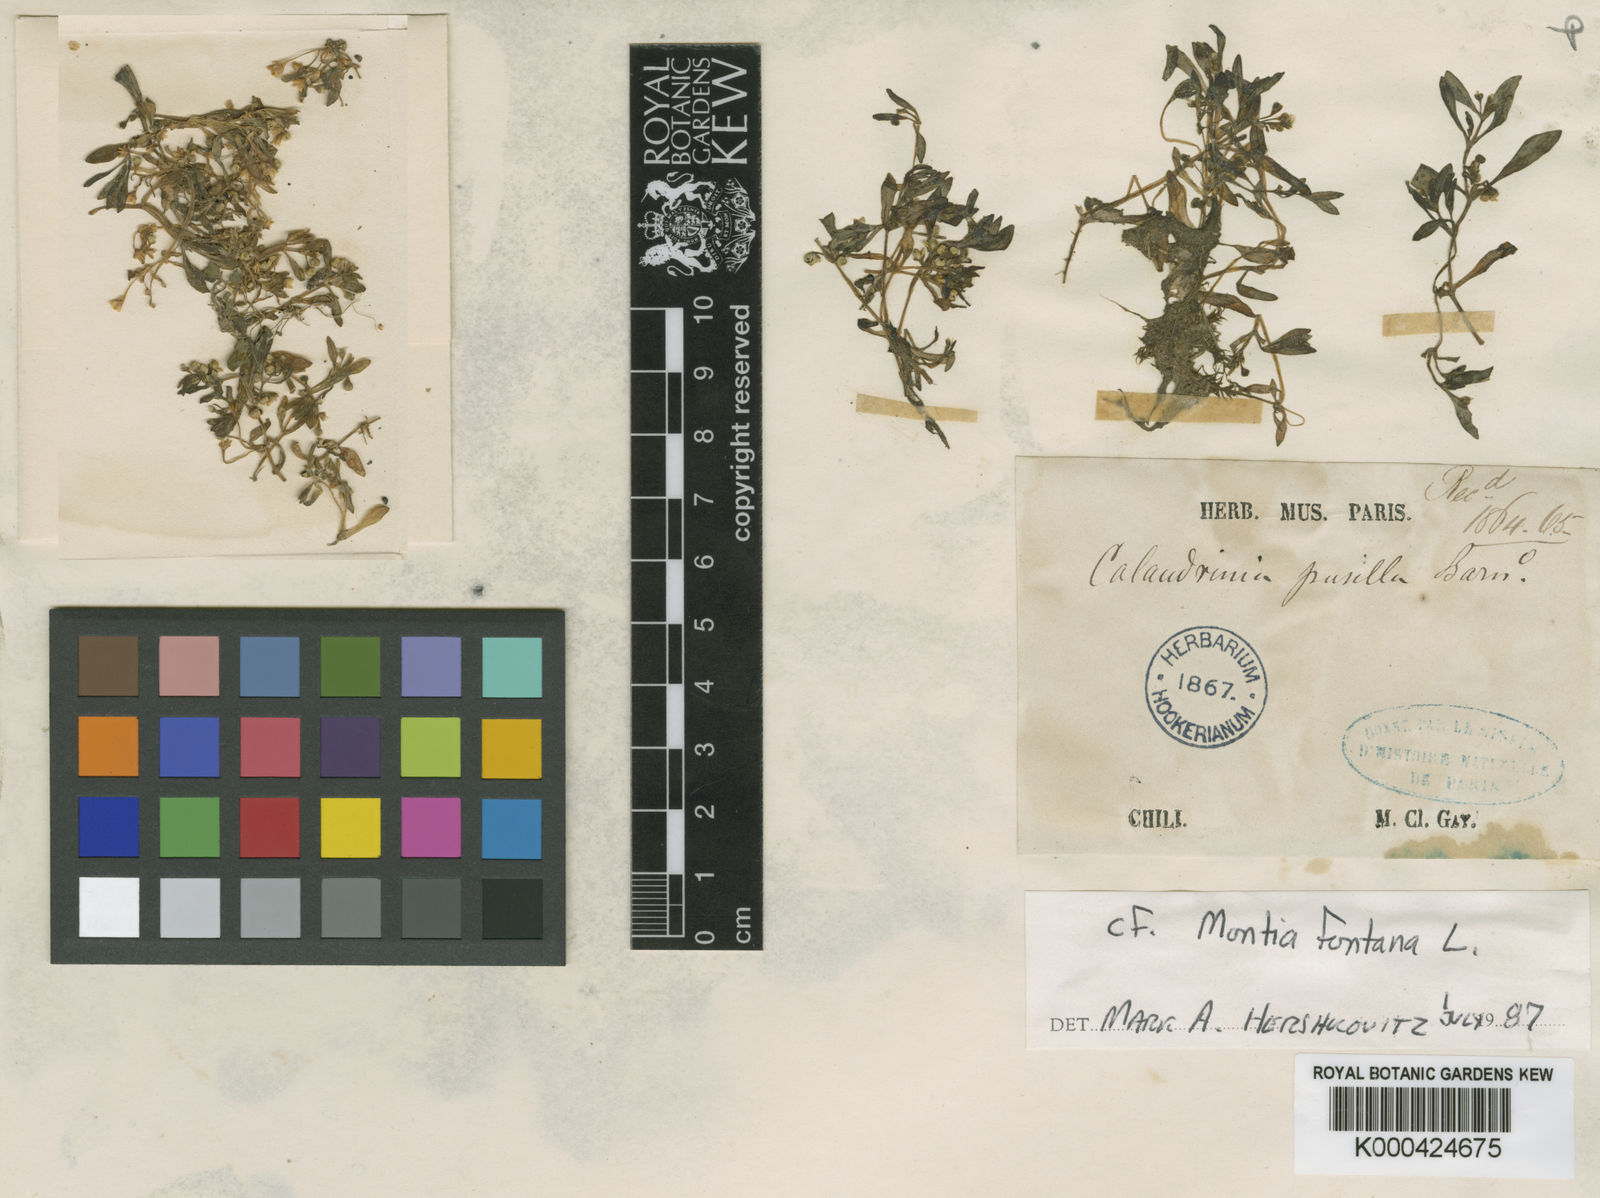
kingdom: Plantae
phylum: Tracheophyta
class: Magnoliopsida
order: Caryophyllales
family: Montiaceae
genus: Calandrinia
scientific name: Calandrinia
